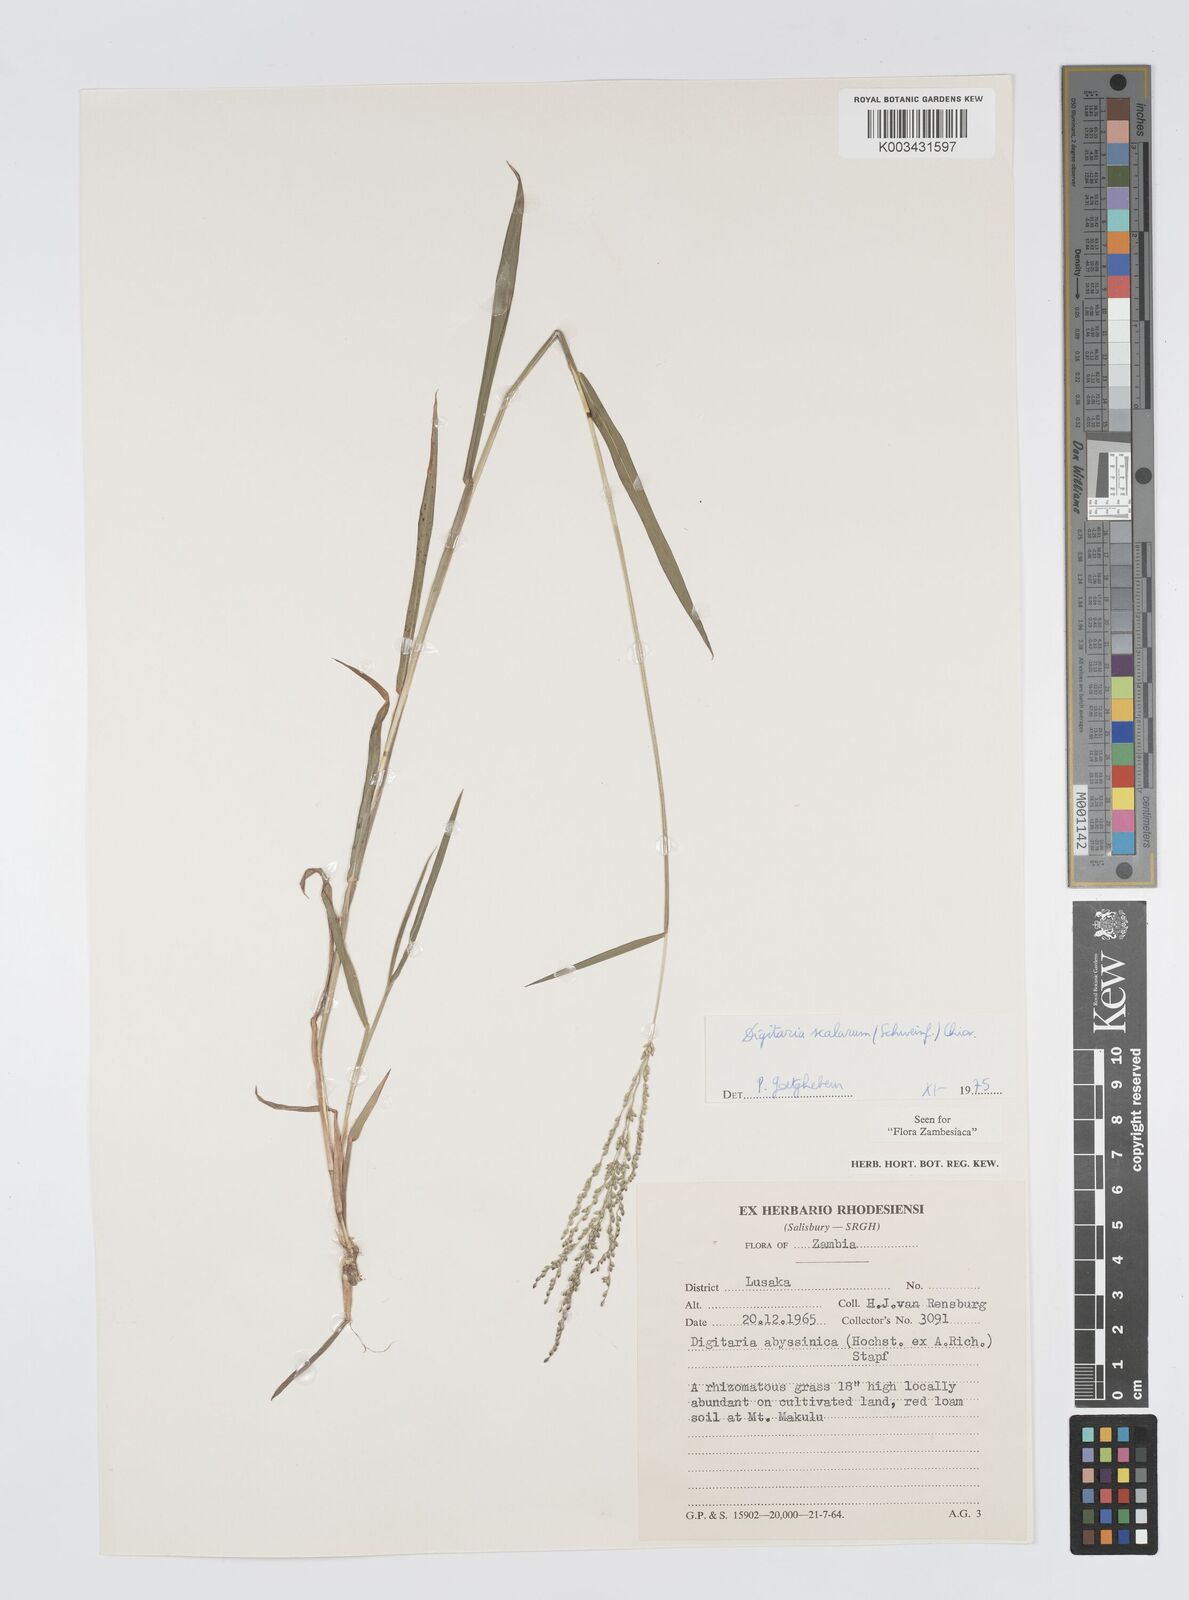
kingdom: Plantae
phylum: Tracheophyta
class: Liliopsida
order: Poales
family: Poaceae
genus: Digitaria
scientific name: Digitaria abyssinica
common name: African couchgrass
